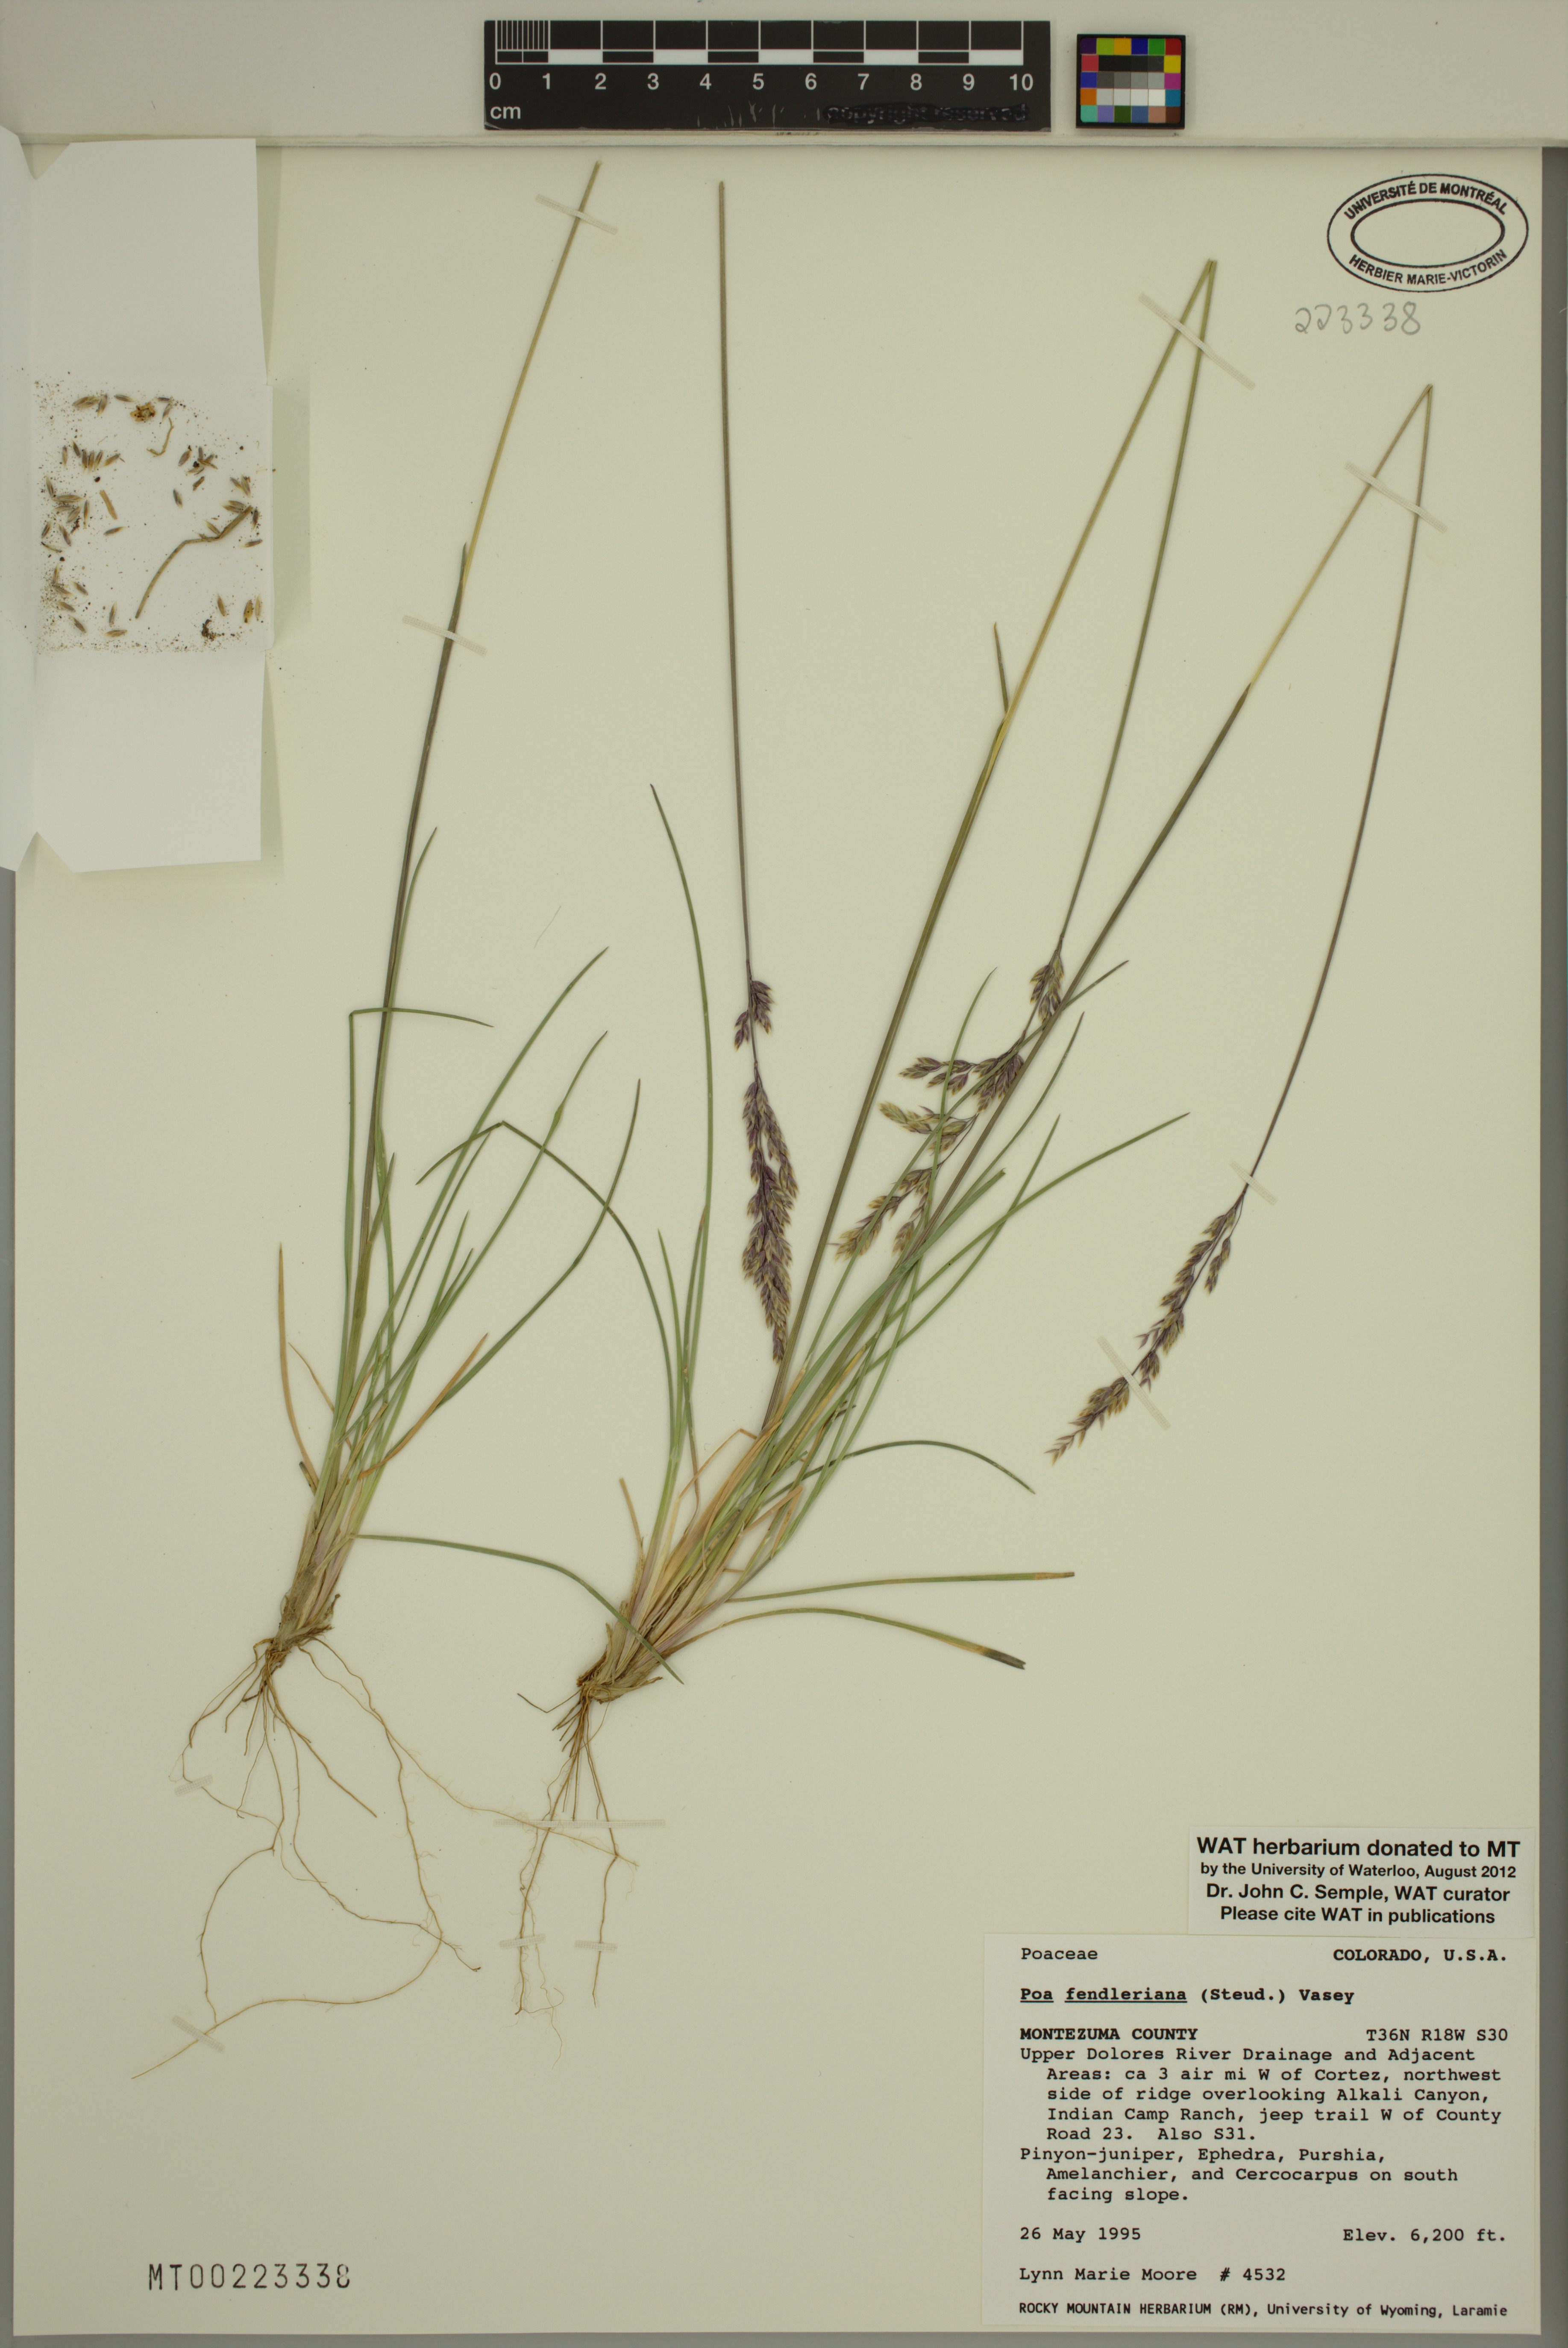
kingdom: Plantae
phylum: Tracheophyta
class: Liliopsida
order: Poales
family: Poaceae
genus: Poa
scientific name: Poa fendleriana
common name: Mutton bluegrass
